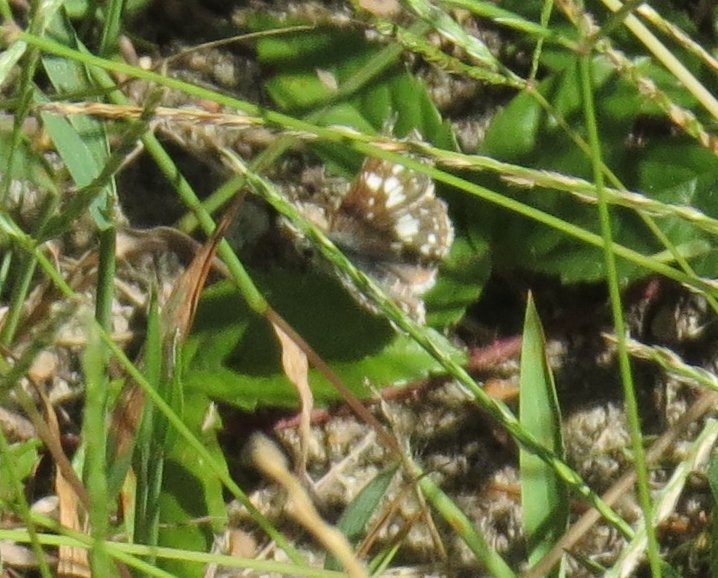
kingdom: Animalia
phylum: Arthropoda
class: Insecta
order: Lepidoptera
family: Hesperiidae
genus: Pyrgus
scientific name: Pyrgus oileus
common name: Tropical Checkered-Skipper
